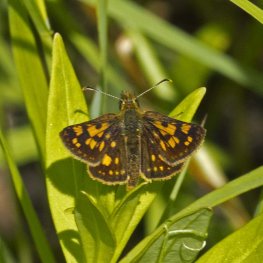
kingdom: Animalia
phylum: Arthropoda
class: Insecta
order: Lepidoptera
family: Hesperiidae
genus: Carterocephalus
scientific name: Carterocephalus palaemon
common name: Chequered Skipper
